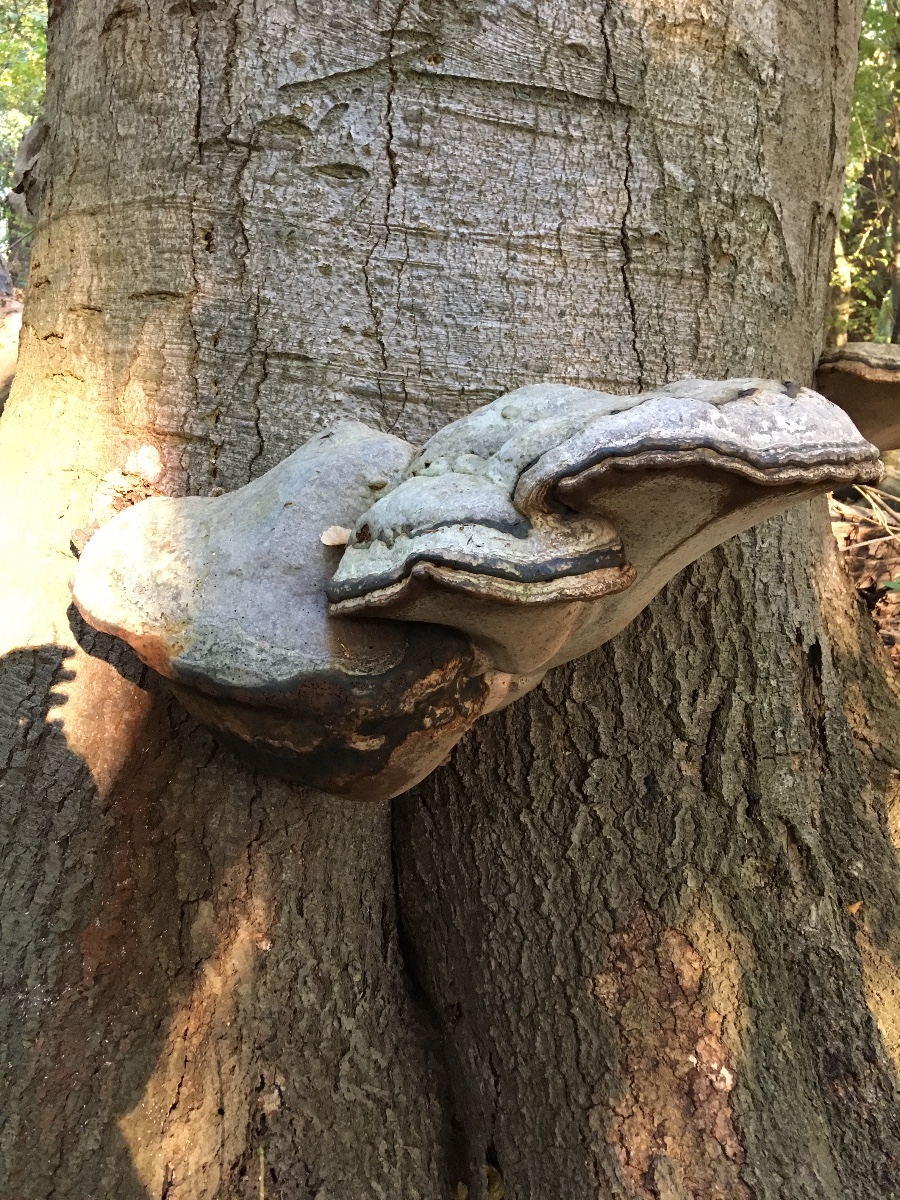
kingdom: Fungi
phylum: Basidiomycota
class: Agaricomycetes
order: Polyporales
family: Polyporaceae
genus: Fomes
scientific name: Fomes fomentarius
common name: tøndersvamp
